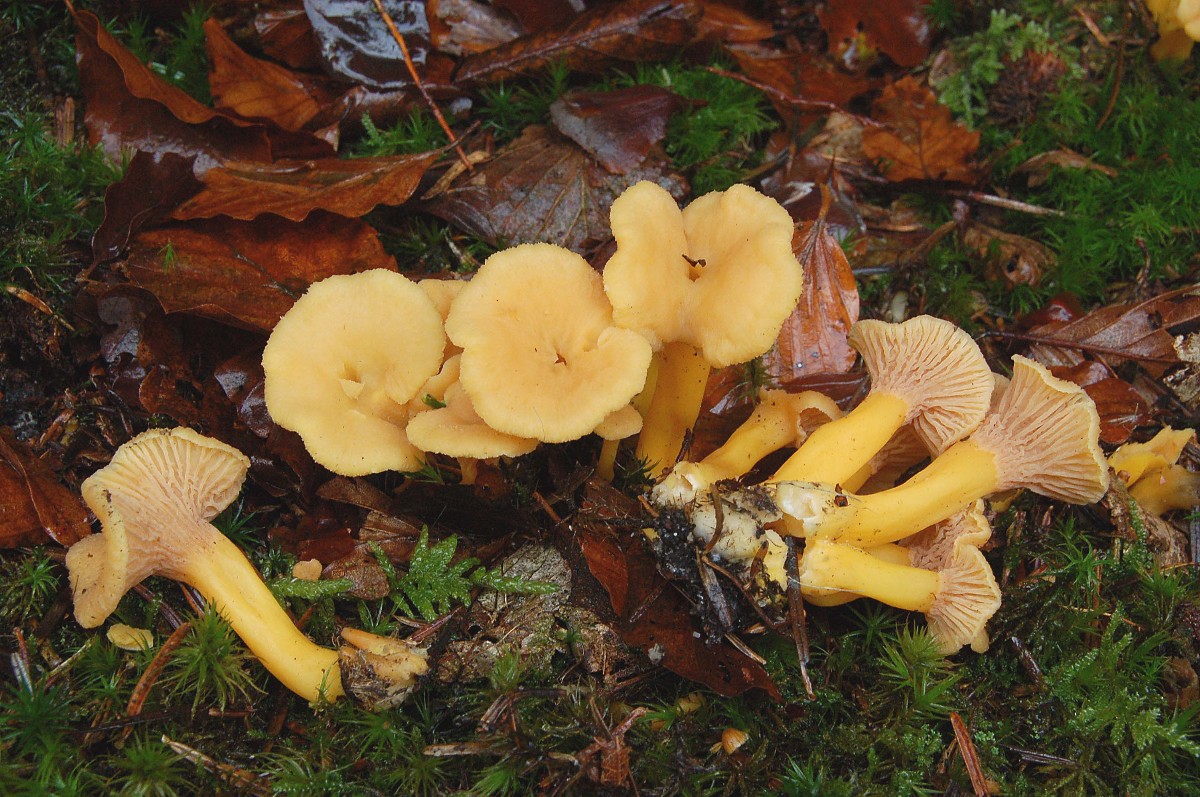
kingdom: Fungi
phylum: Basidiomycota
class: Agaricomycetes
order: Cantharellales
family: Hydnaceae
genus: Craterellus
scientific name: Craterellus tubaeformis
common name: tragt-kantarel
